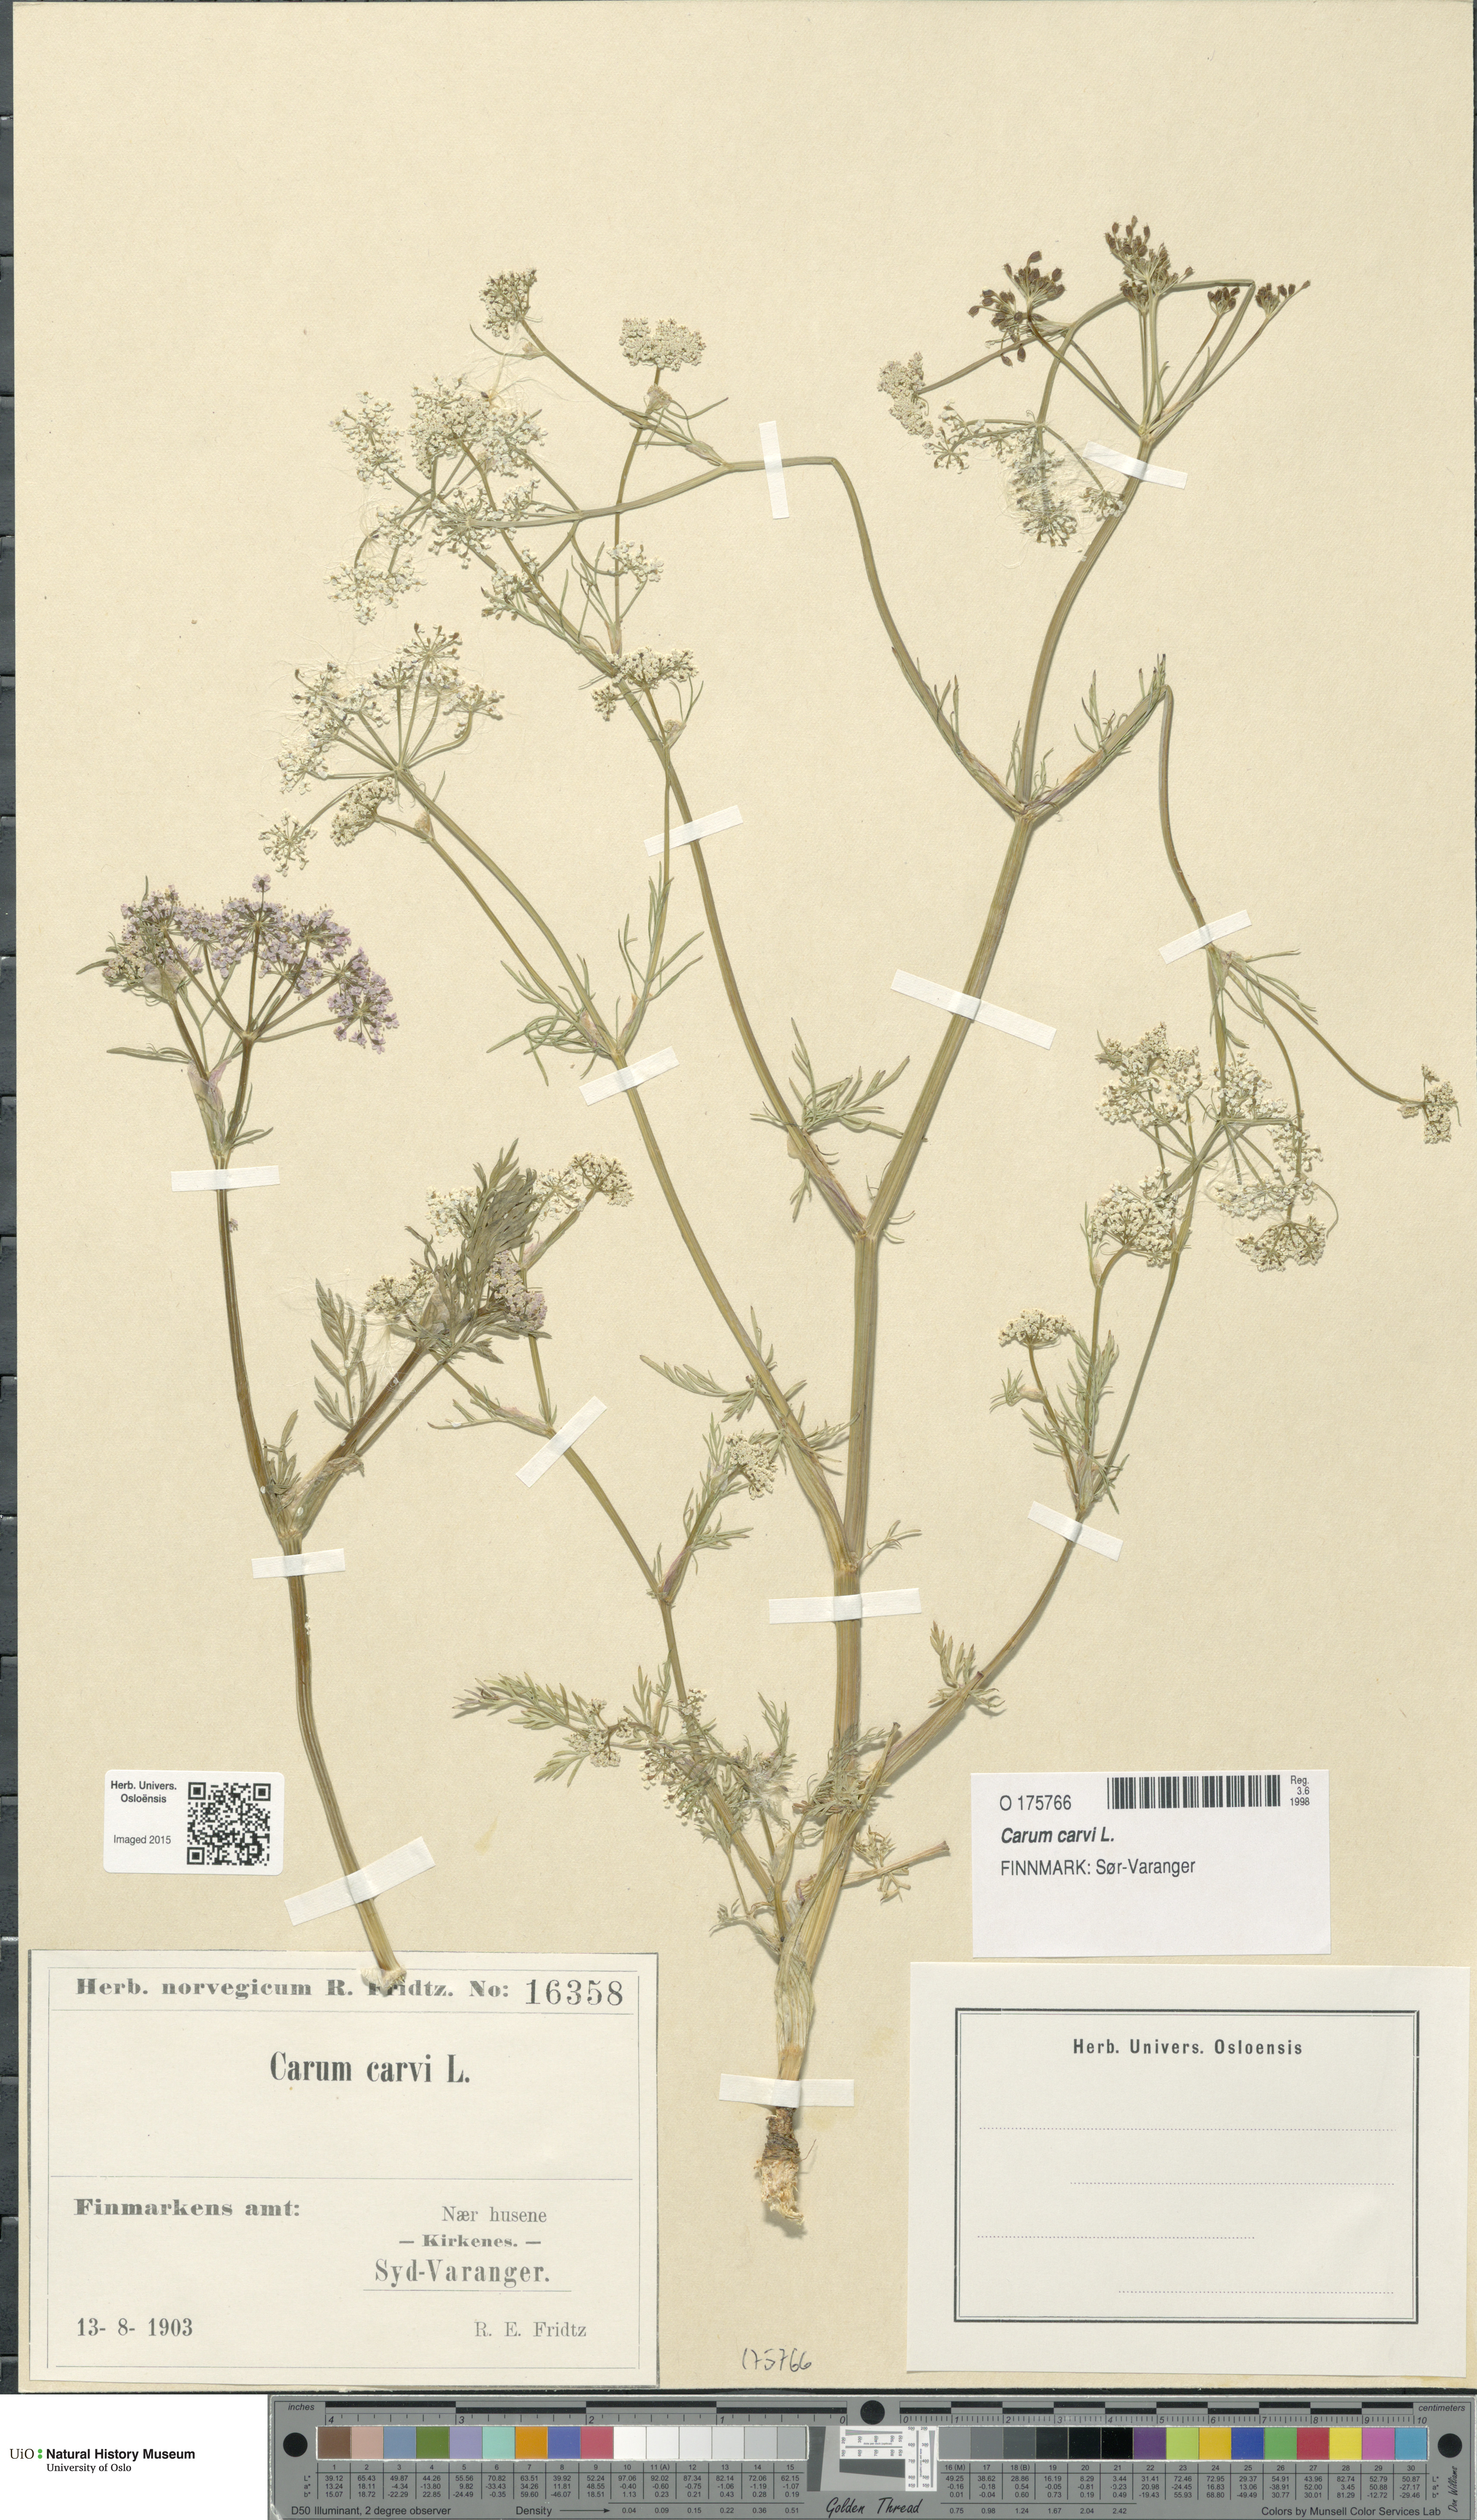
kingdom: Plantae
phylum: Tracheophyta
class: Magnoliopsida
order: Apiales
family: Apiaceae
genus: Carum
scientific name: Carum carvi
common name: Caraway
